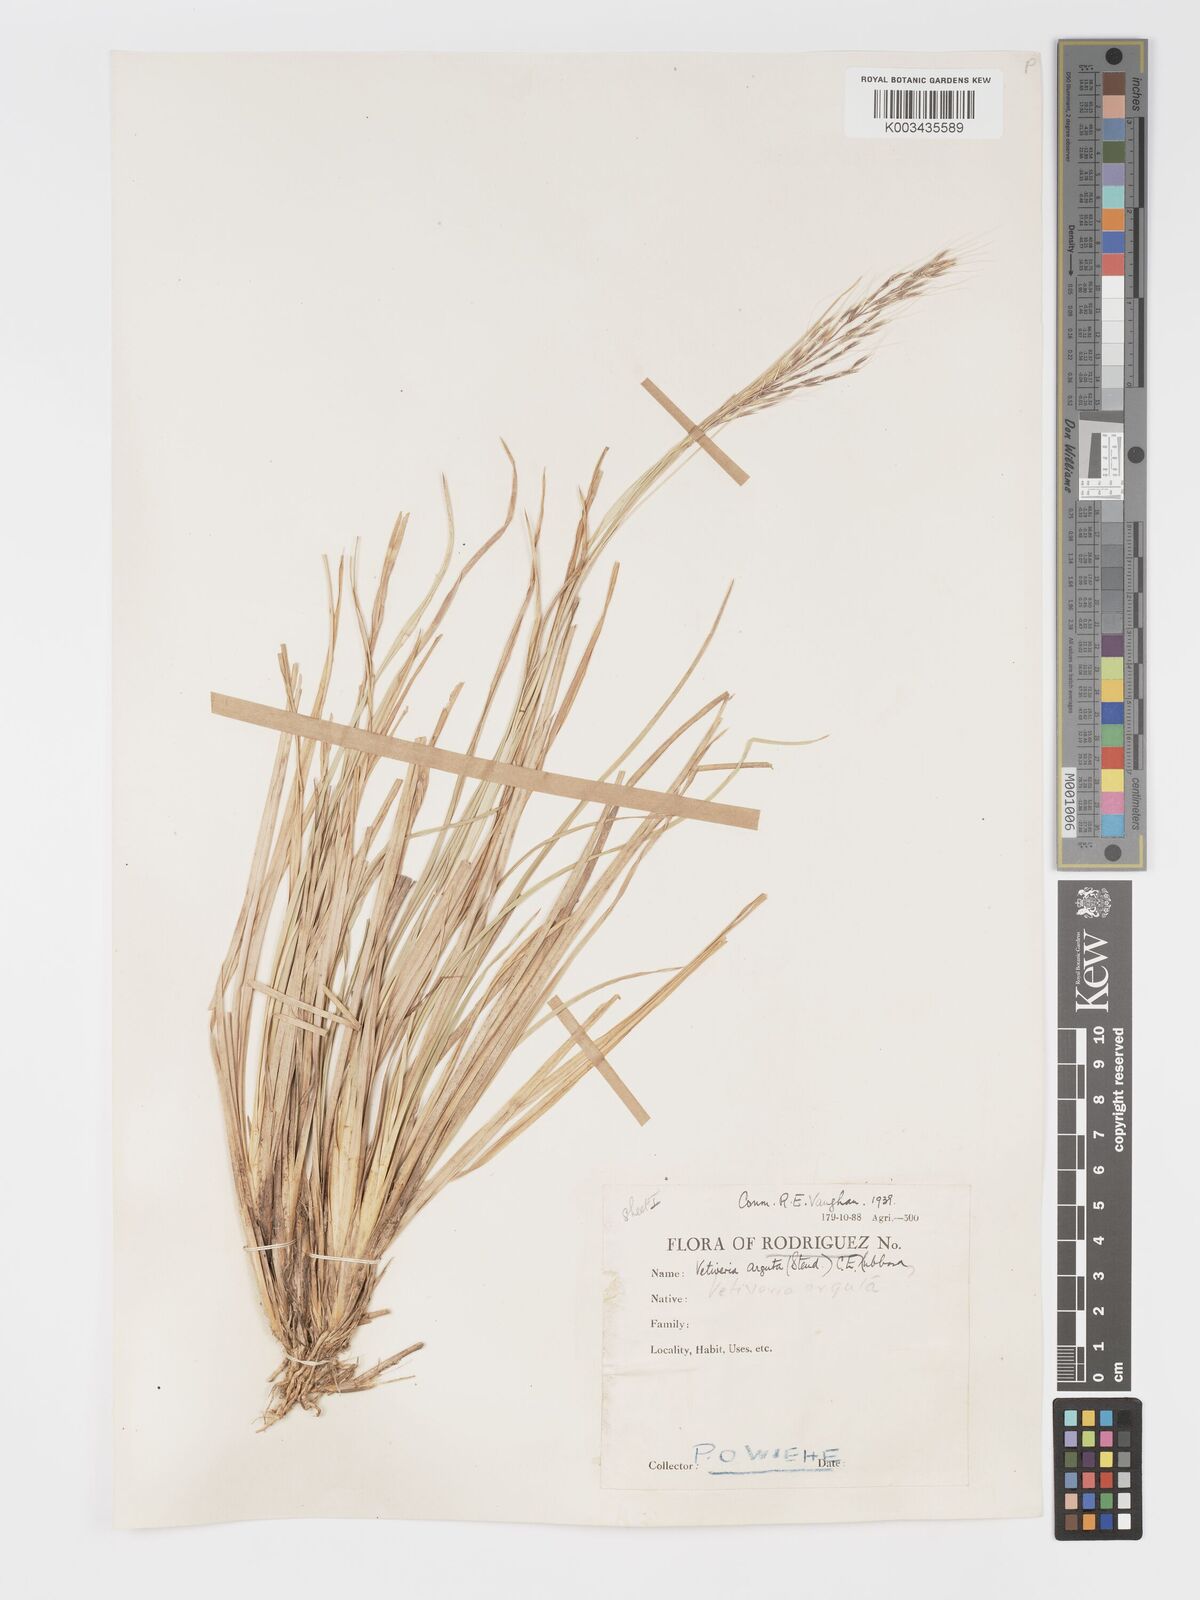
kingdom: Plantae
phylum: Tracheophyta
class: Liliopsida
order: Poales
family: Poaceae
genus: Chrysopogon
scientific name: Chrysopogon argutus
